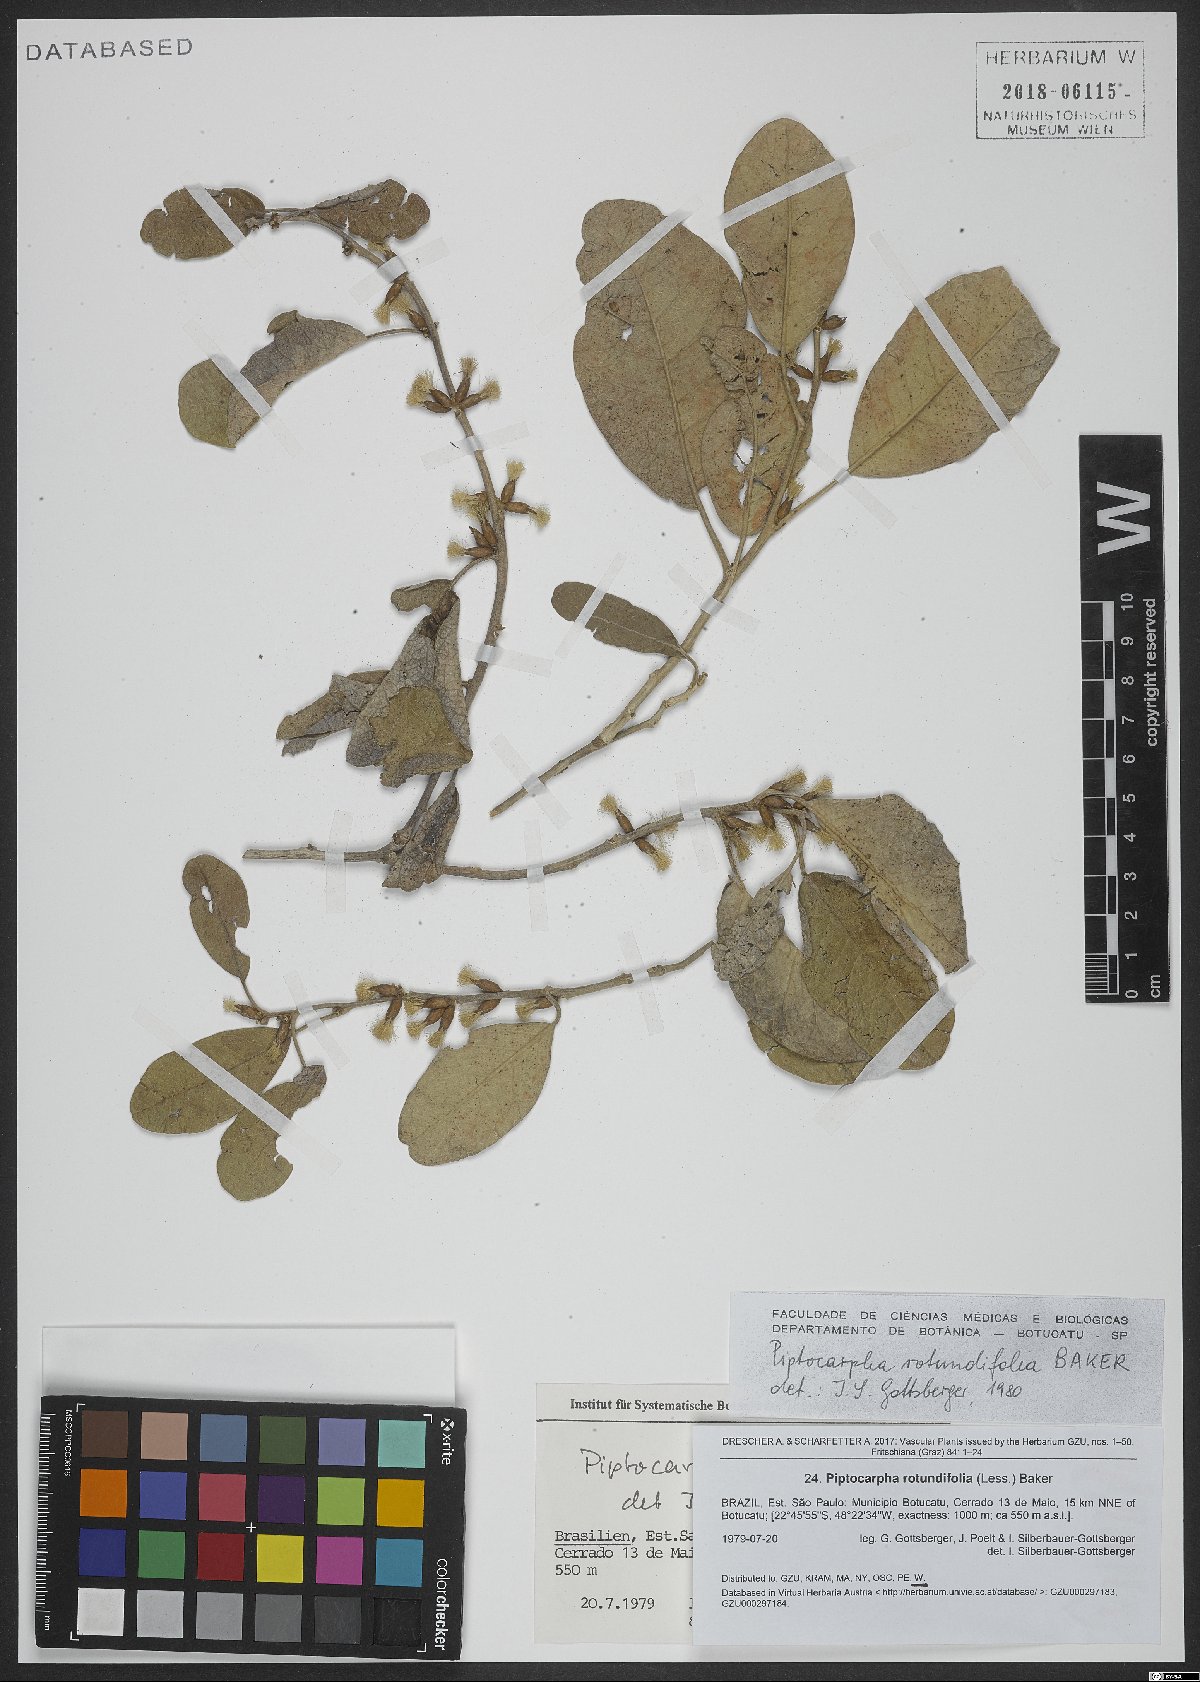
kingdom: Plantae
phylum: Tracheophyta
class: Magnoliopsida
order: Asterales
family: Asteraceae
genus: Piptocarpha
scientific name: Piptocarpha rotundifolia
